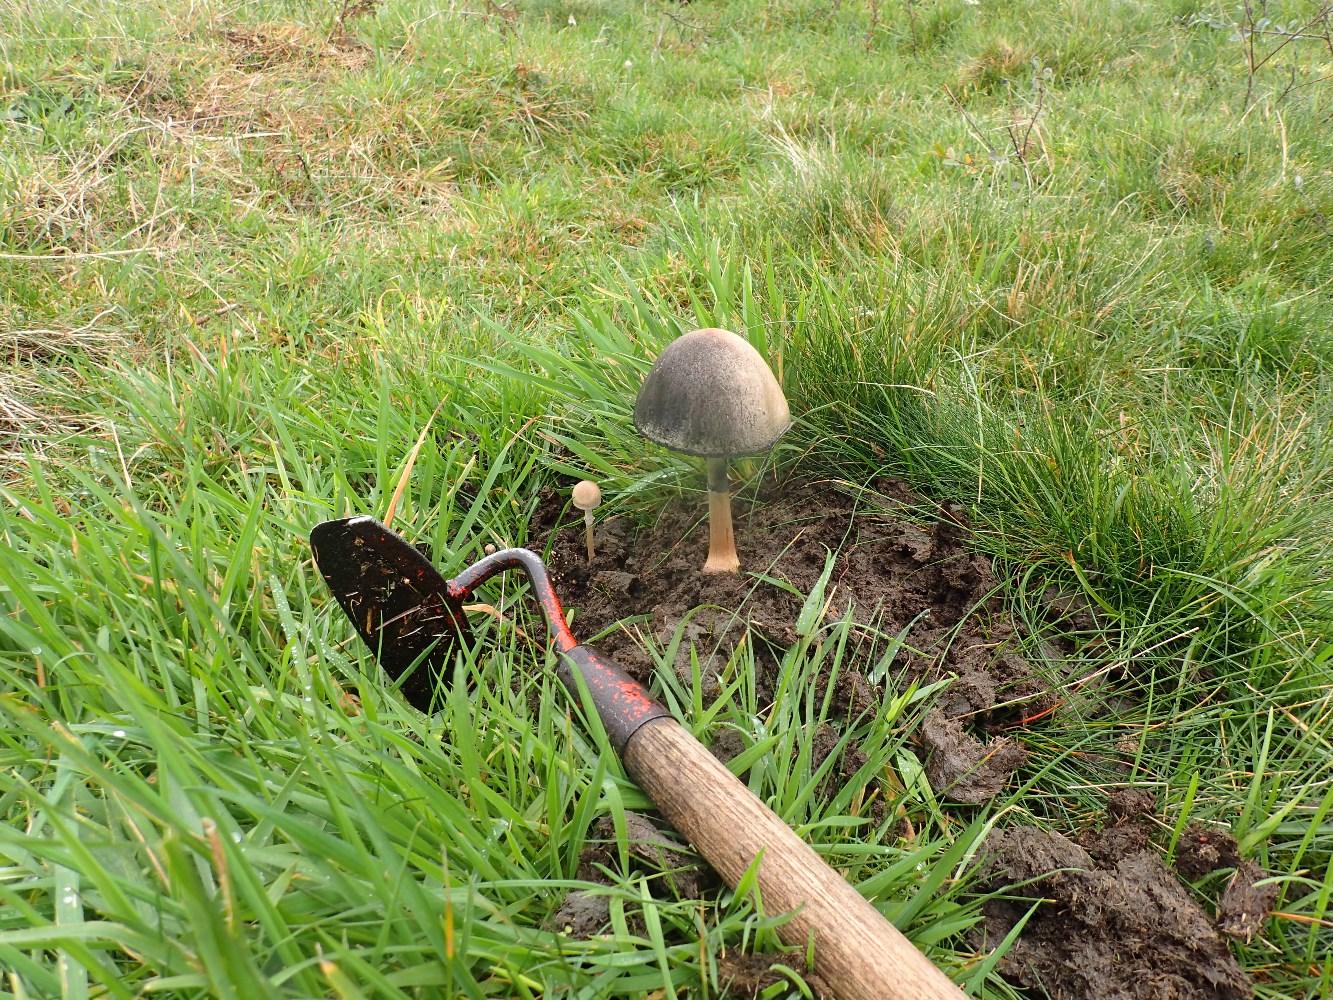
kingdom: Fungi
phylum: Basidiomycota
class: Agaricomycetes
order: Agaricales
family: Bolbitiaceae
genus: Panaeolus
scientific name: Panaeolus semiovatus
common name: ring-glanshat
